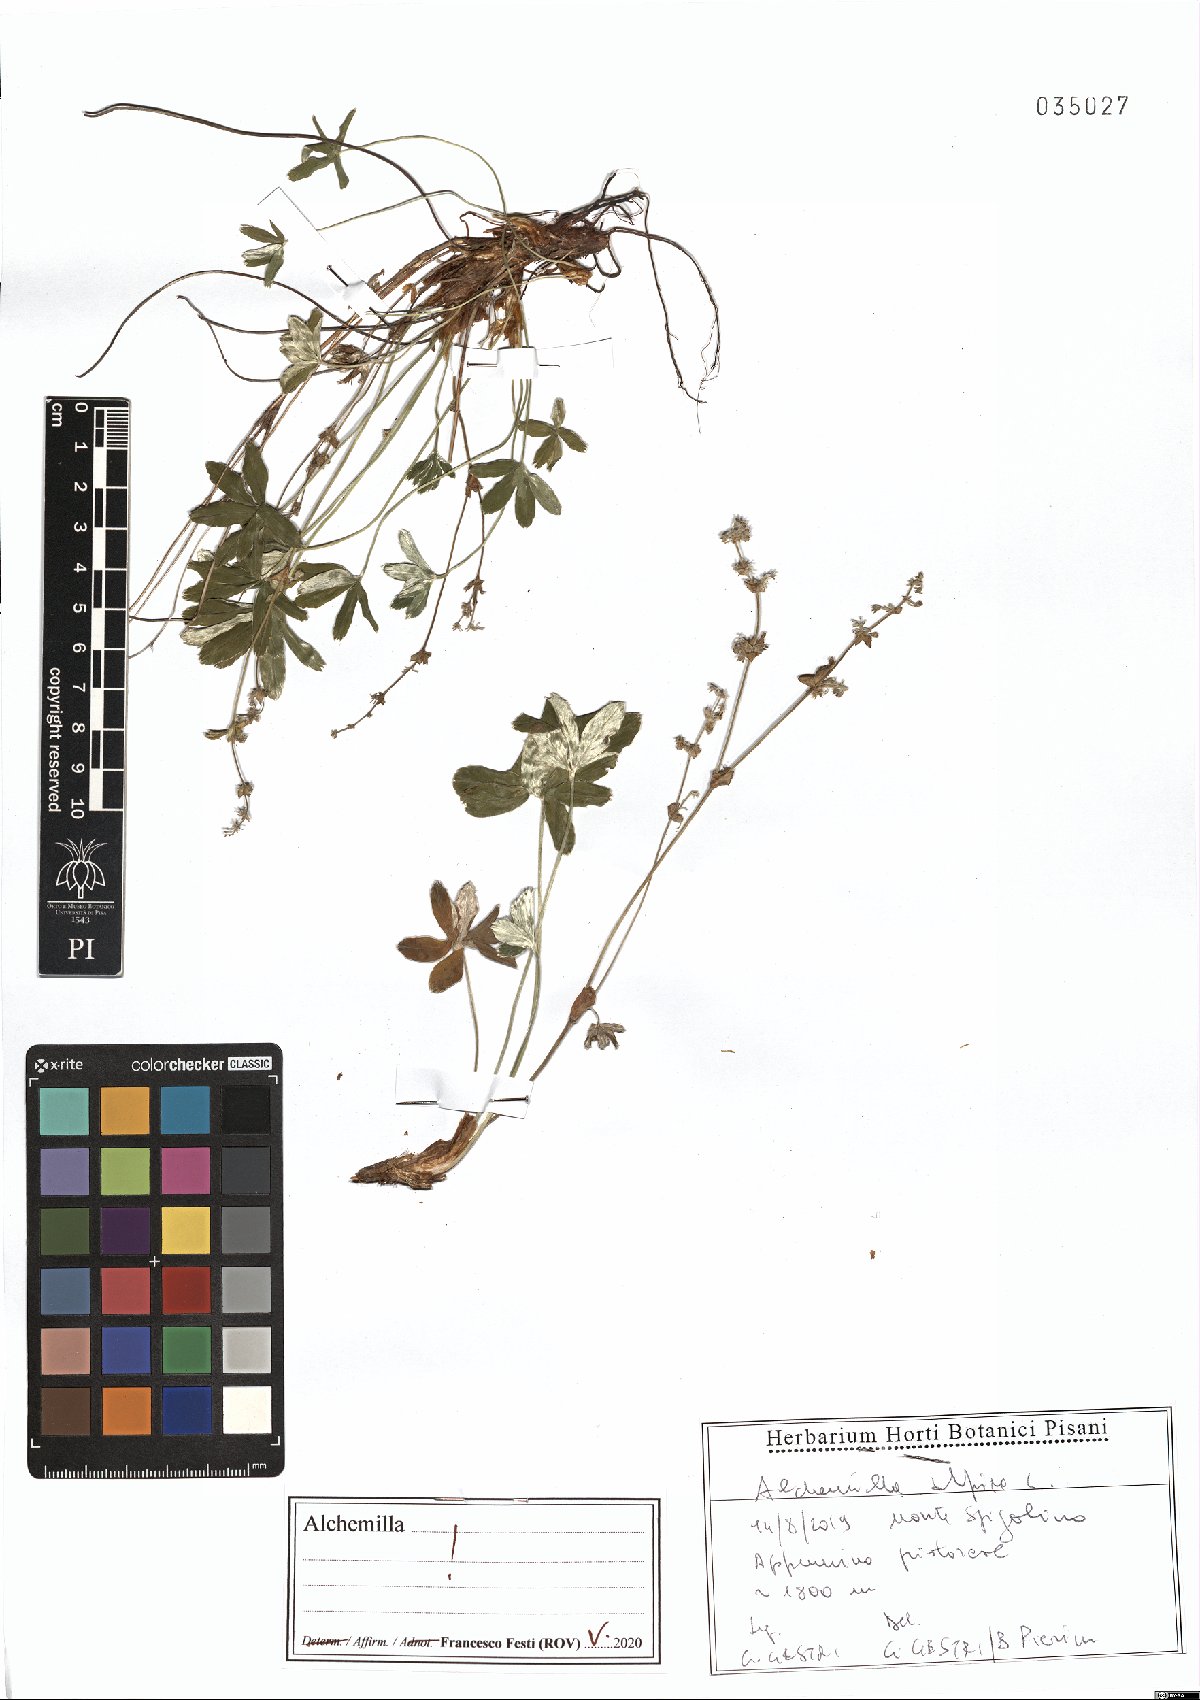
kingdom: Plantae
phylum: Tracheophyta
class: Magnoliopsida
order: Rosales
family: Rosaceae
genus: Alchemilla
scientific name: Alchemilla alpina
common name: Alpine lady's-mantle
